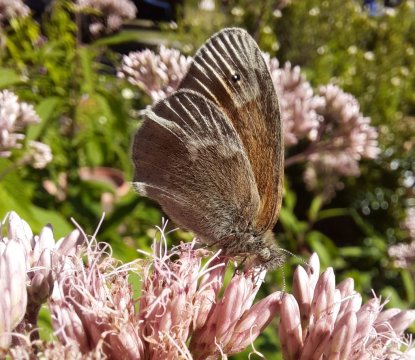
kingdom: Animalia
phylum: Arthropoda
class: Insecta
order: Lepidoptera
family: Nymphalidae
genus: Coenonympha
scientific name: Coenonympha tullia
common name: Large Heath
